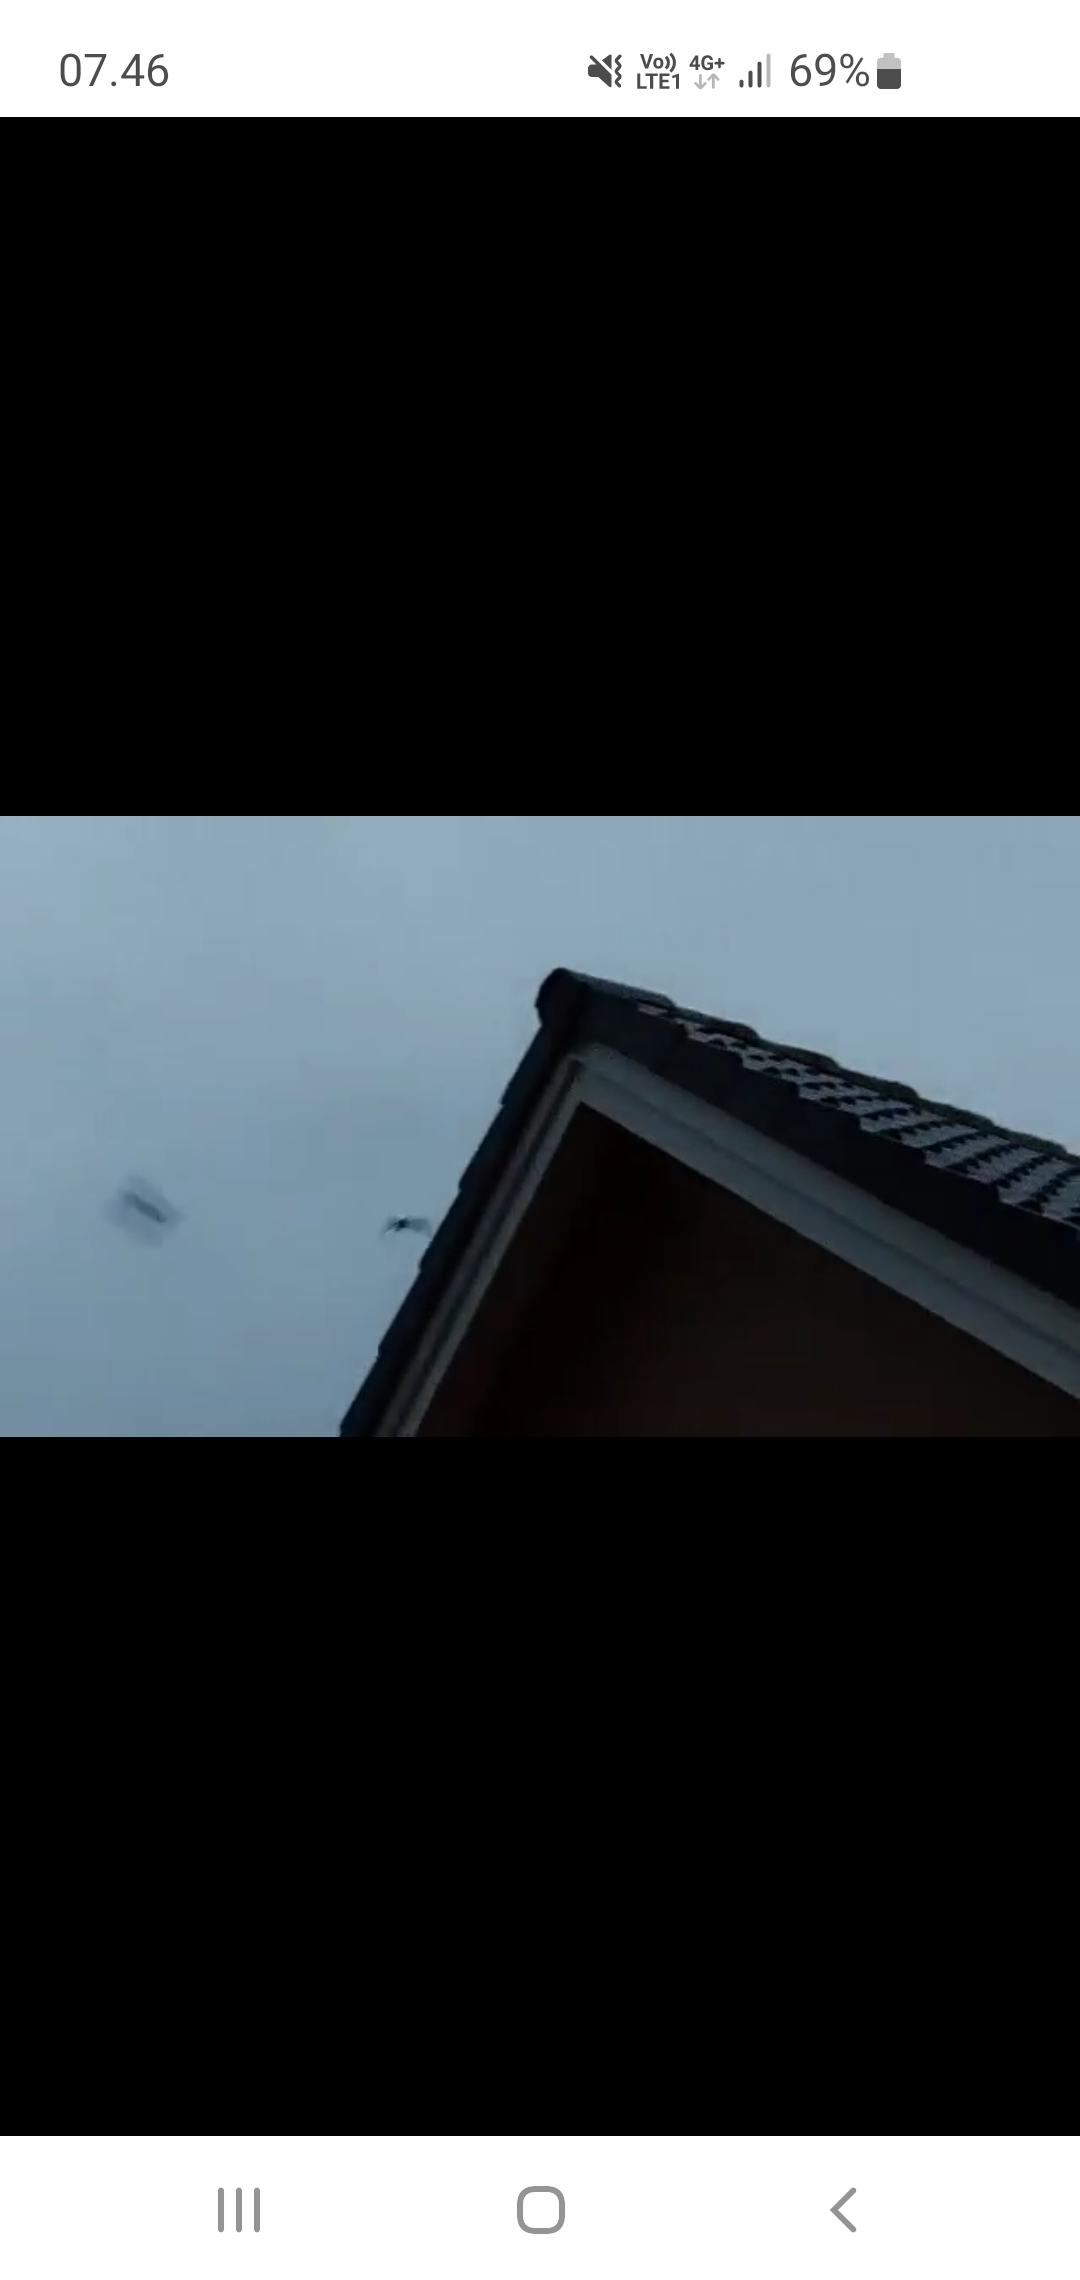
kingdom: Animalia
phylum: Chordata
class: Mammalia
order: Chiroptera
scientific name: Chiroptera
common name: Flagermus
